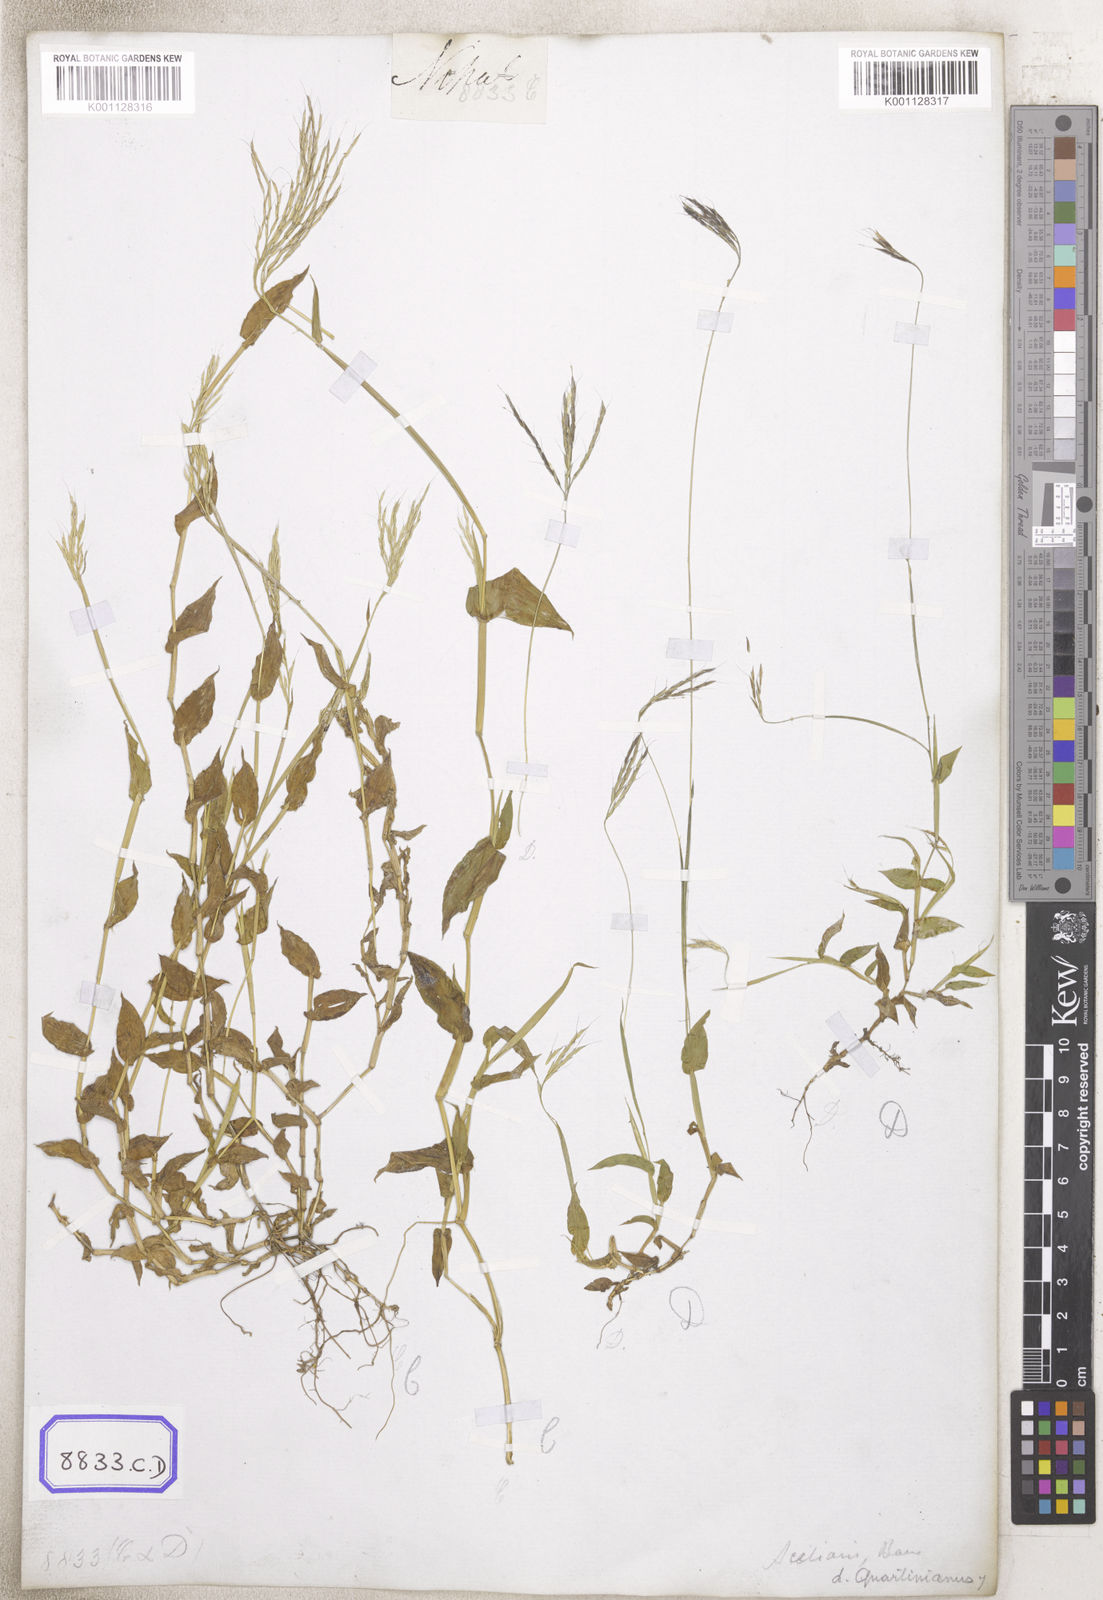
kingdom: Plantae
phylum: Tracheophyta
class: Liliopsida
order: Poales
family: Poaceae
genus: Arthraxon
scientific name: Arthraxon
